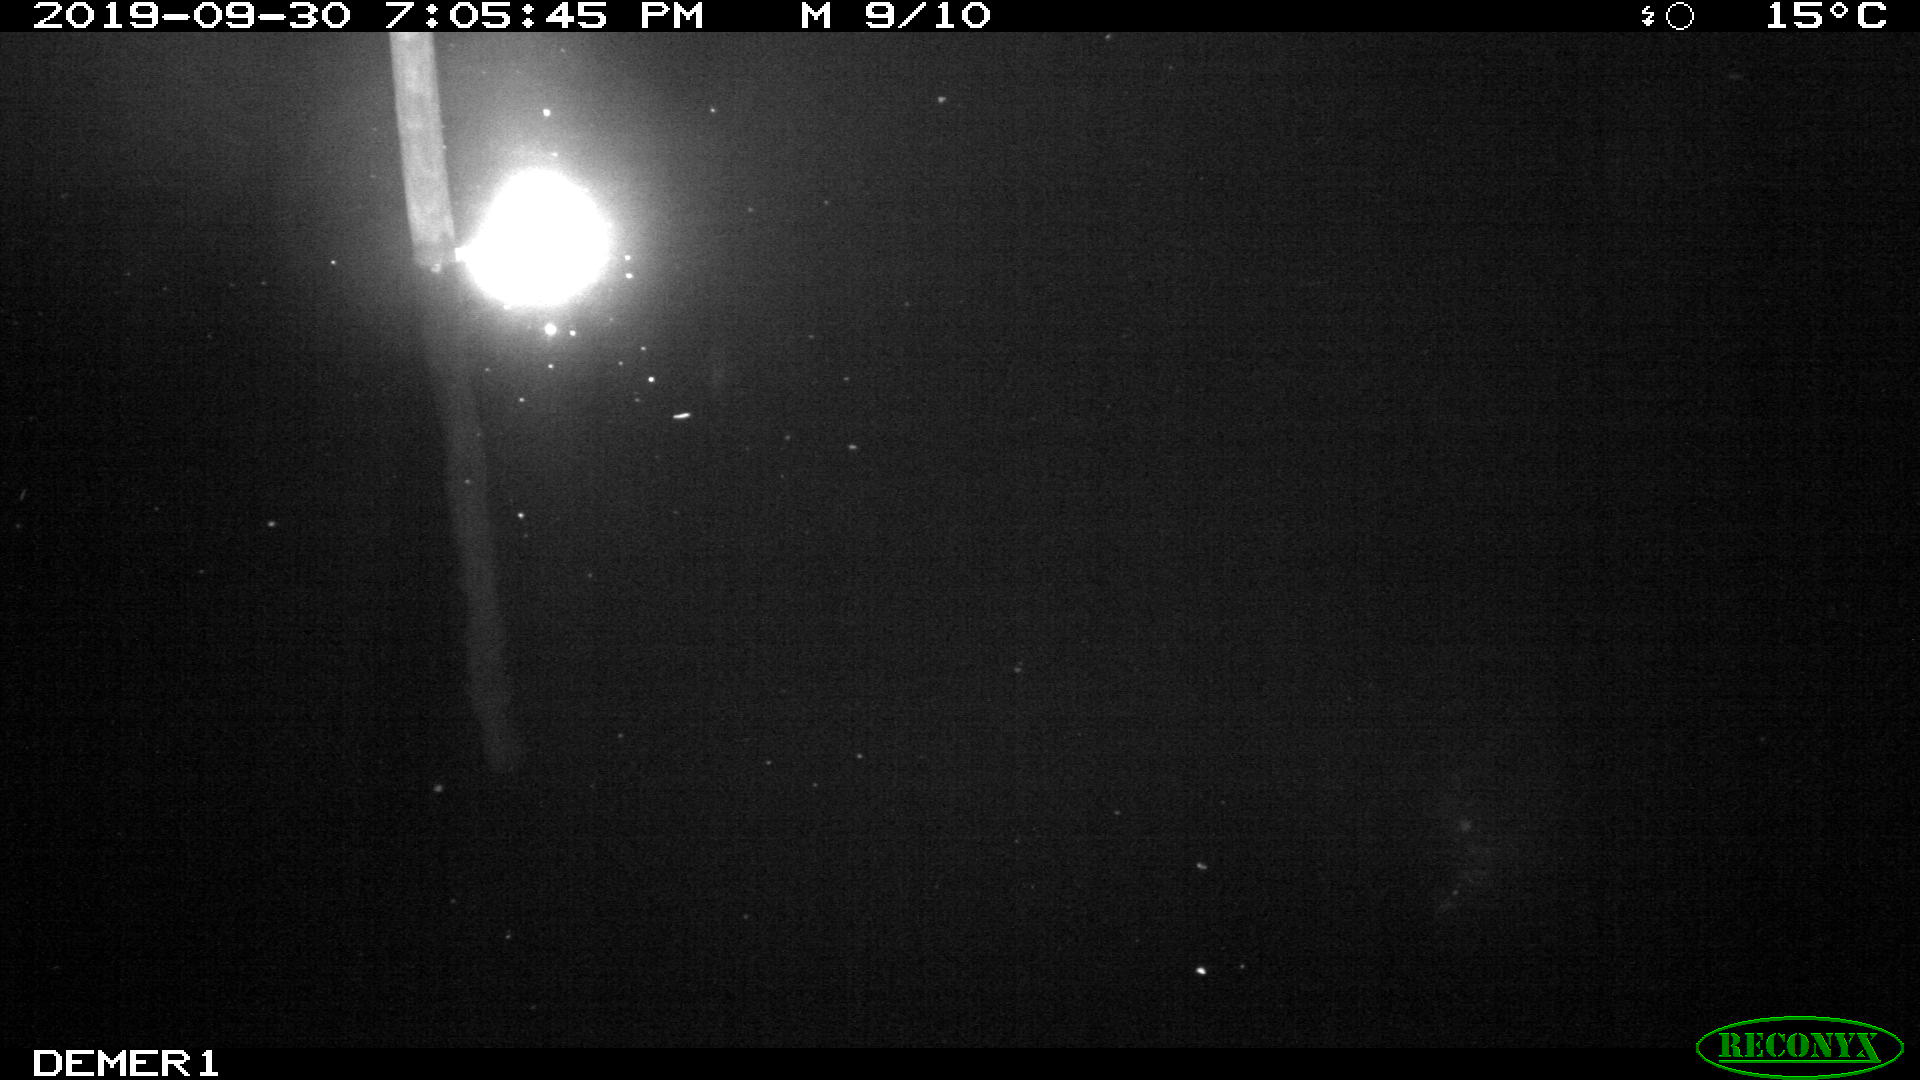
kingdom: Animalia
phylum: Chordata
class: Aves
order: Anseriformes
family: Anatidae
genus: Anas
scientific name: Anas platyrhynchos
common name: Mallard
